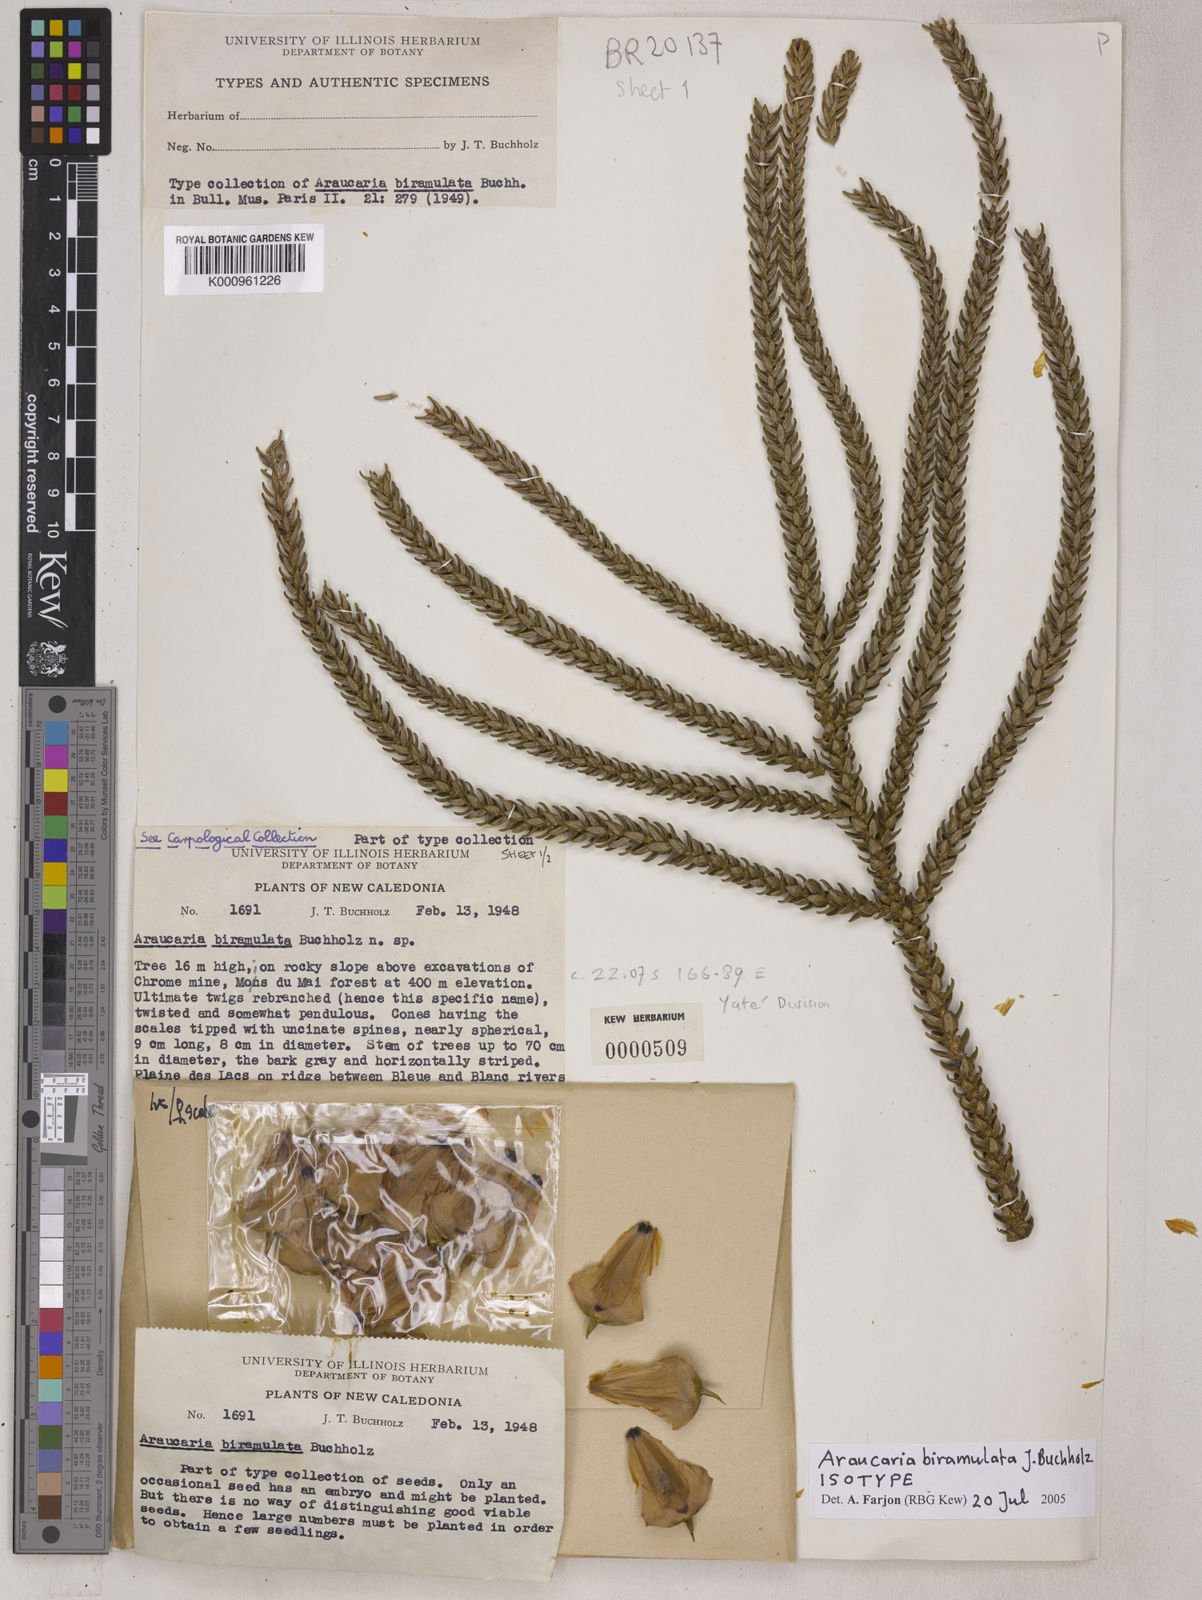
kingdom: Plantae
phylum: Tracheophyta
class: Pinopsida
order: Pinales
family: Araucariaceae
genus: Araucaria
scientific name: Araucaria biramulata
